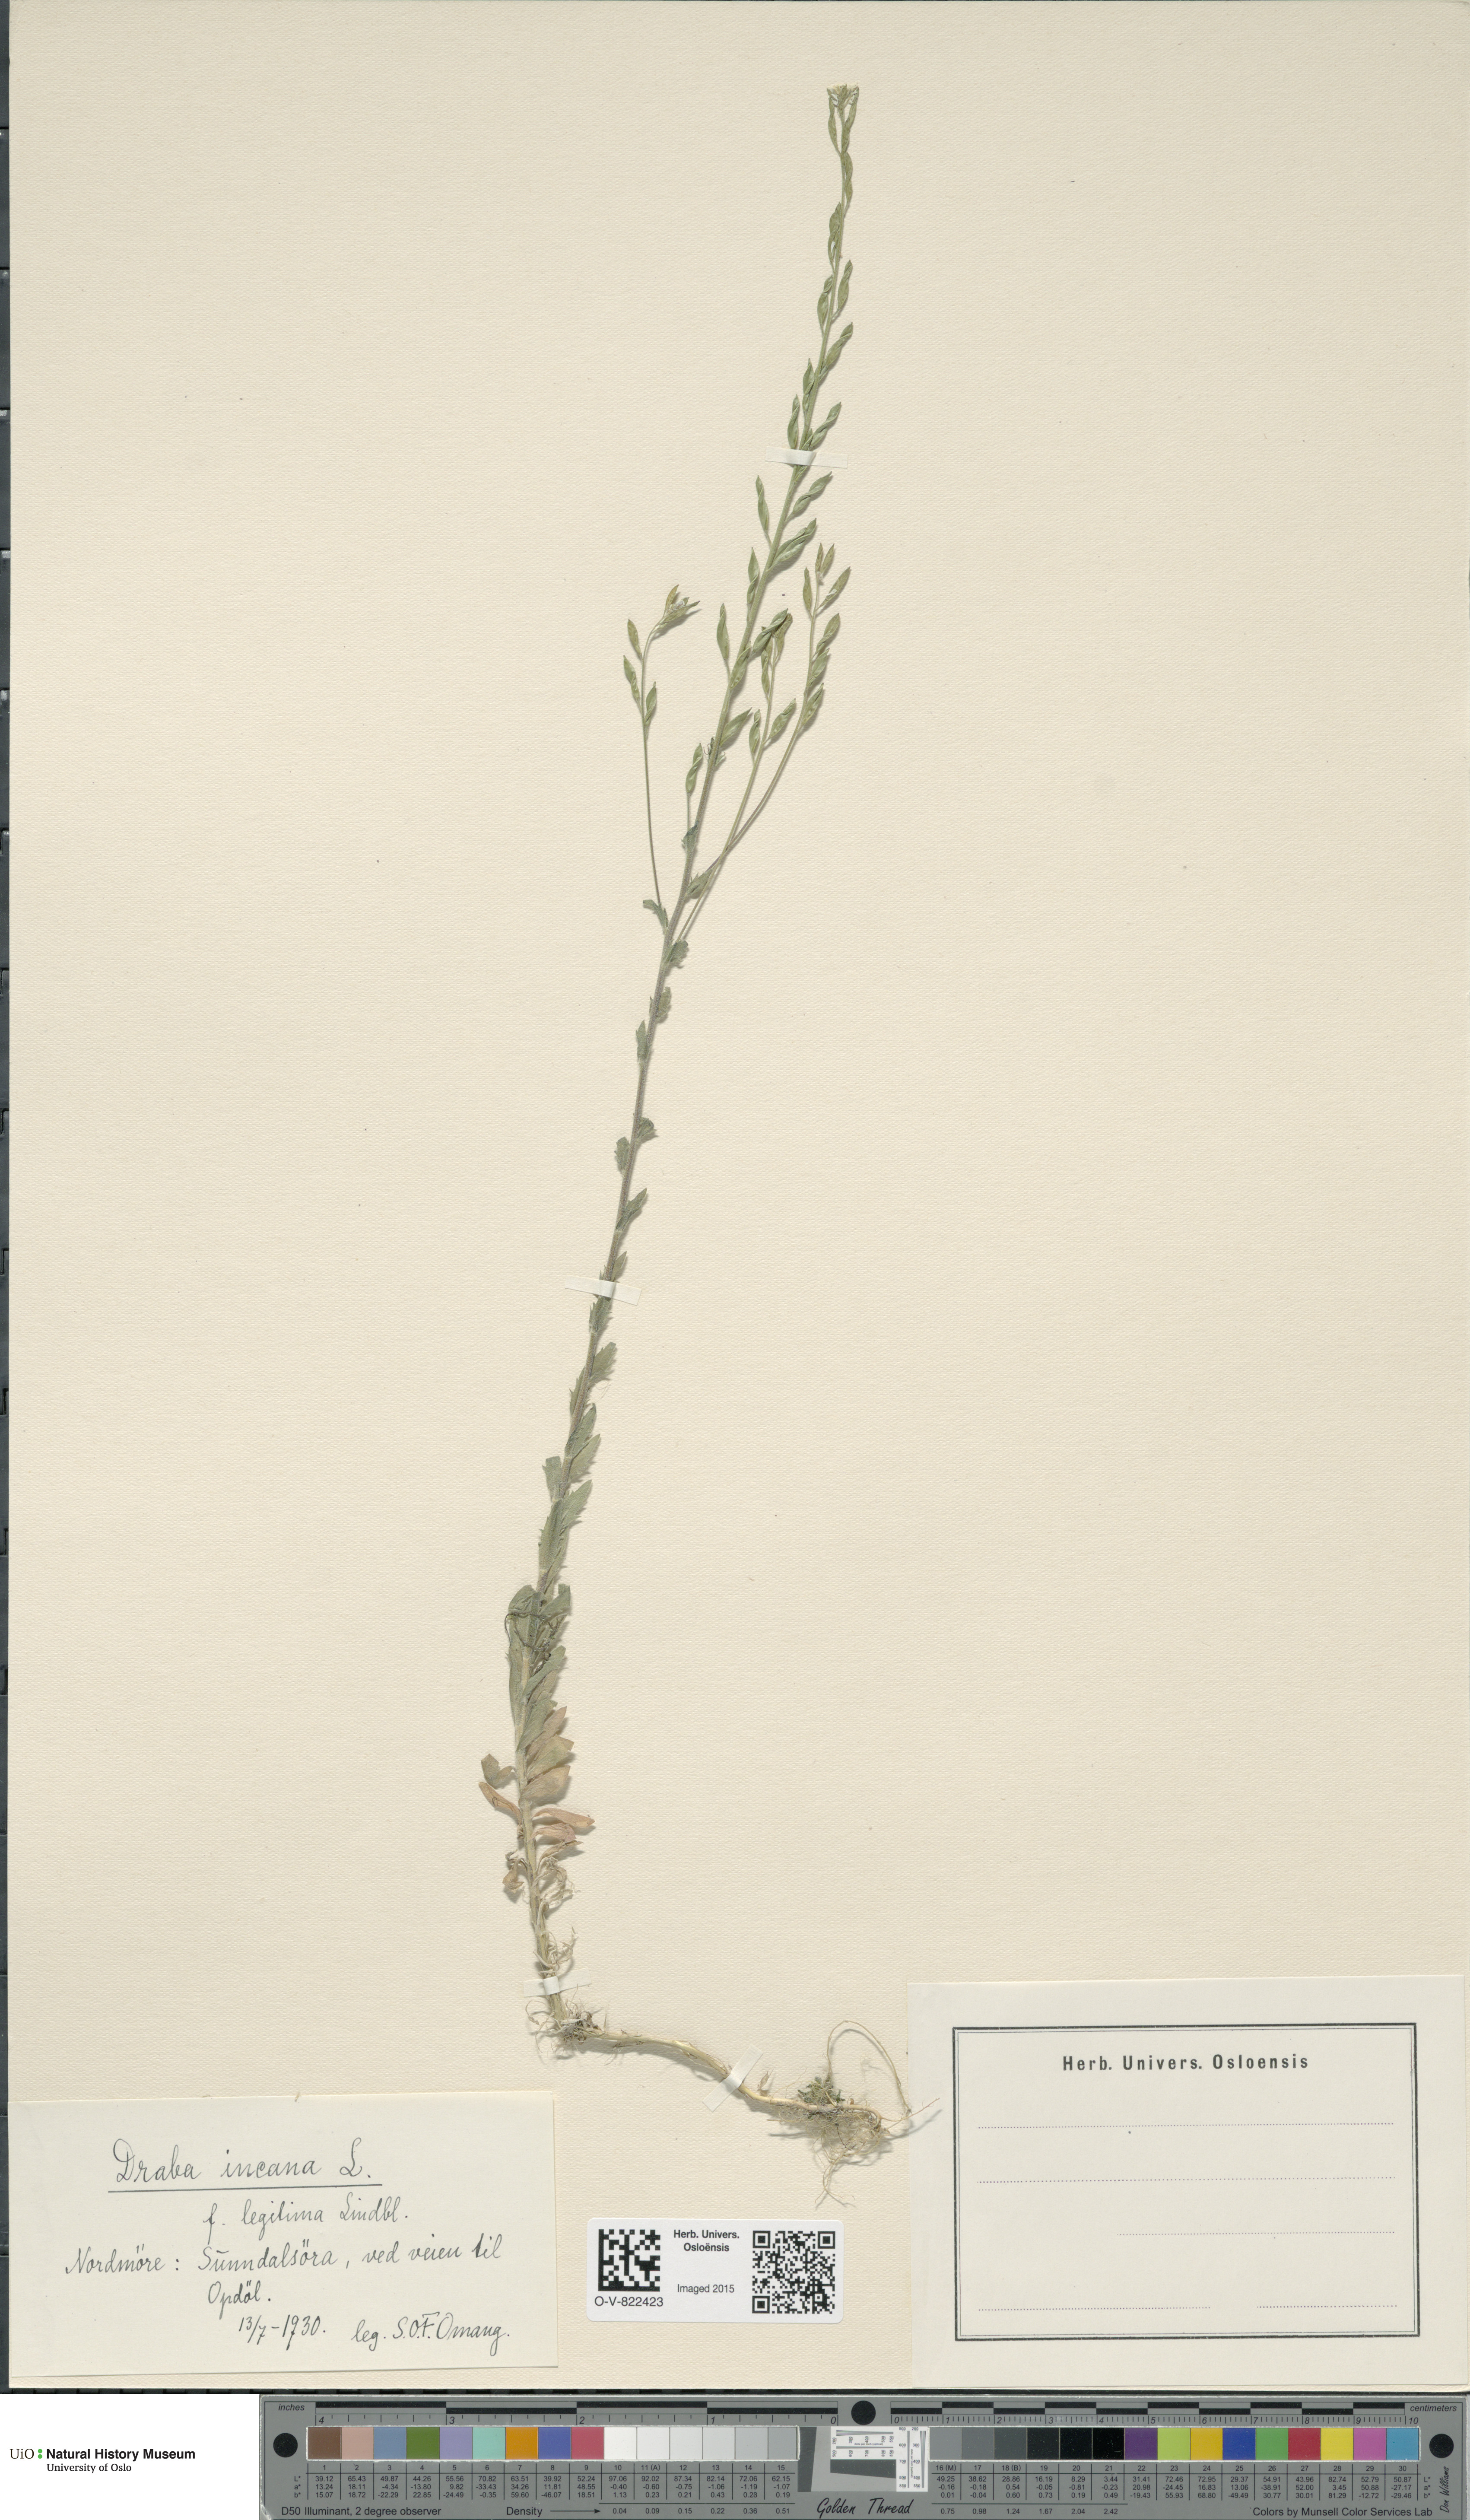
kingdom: Plantae
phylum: Tracheophyta
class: Magnoliopsida
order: Brassicales
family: Brassicaceae
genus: Draba
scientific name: Draba incana
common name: Hoary whitlow-grass
